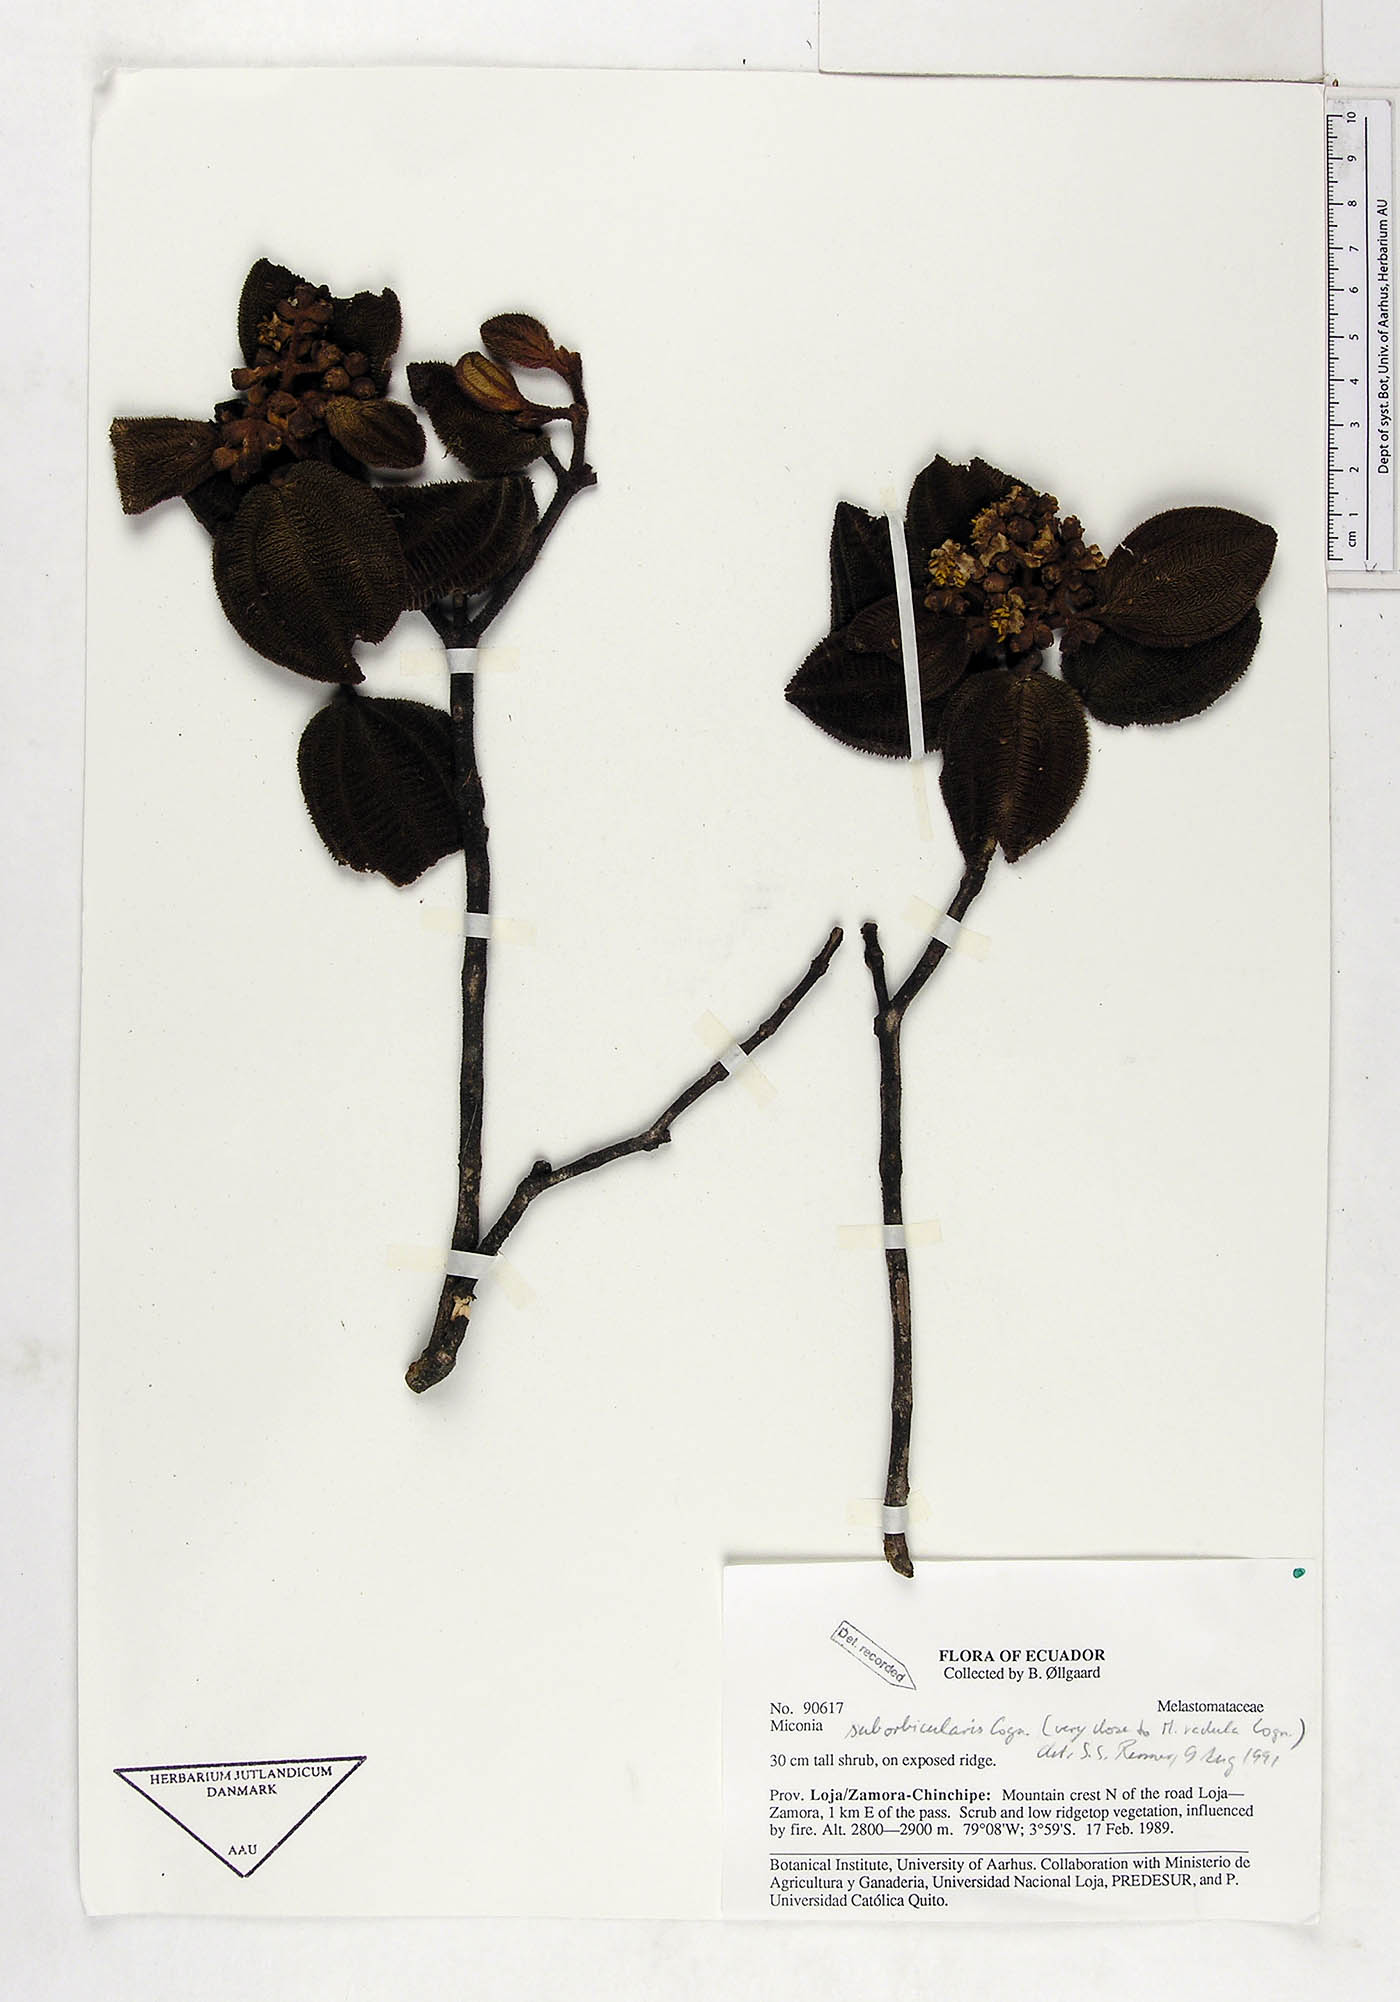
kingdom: Plantae
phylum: Tracheophyta
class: Magnoliopsida
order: Myrtales
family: Melastomataceae
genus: Miconia
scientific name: Miconia suborbicularis
